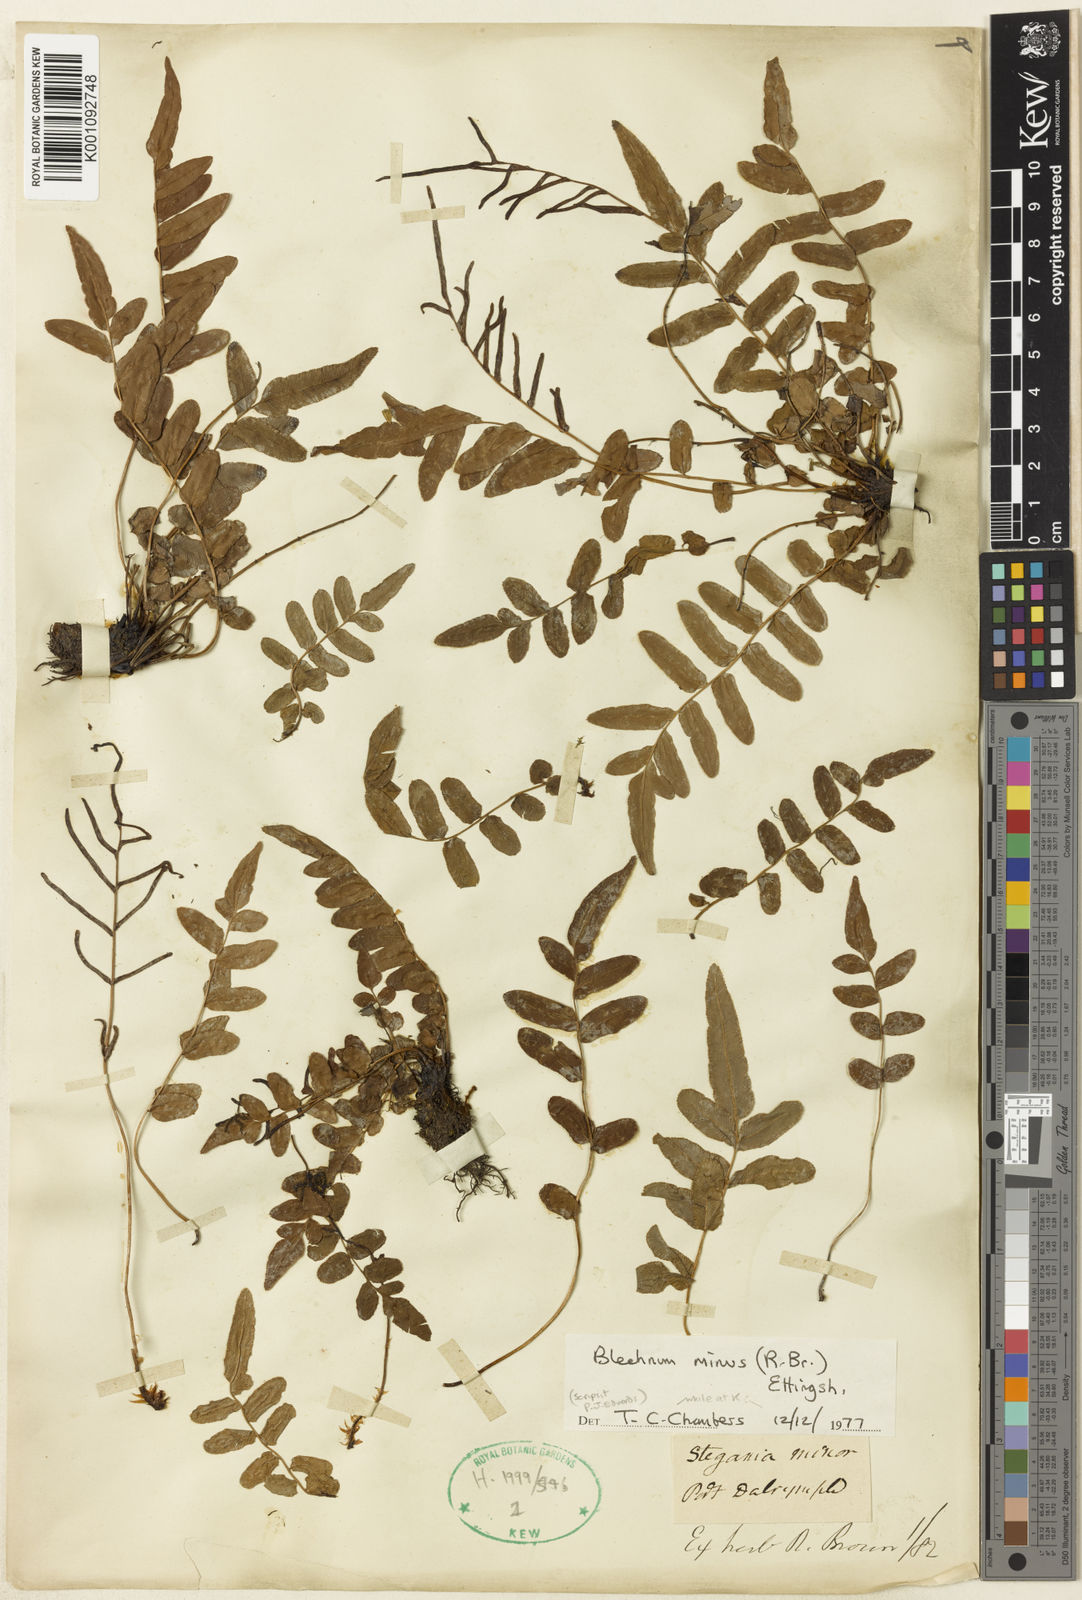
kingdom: Plantae
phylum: Tracheophyta
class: Polypodiopsida
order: Polypodiales
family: Blechnaceae
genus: Parablechnum
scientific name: Parablechnum minus
